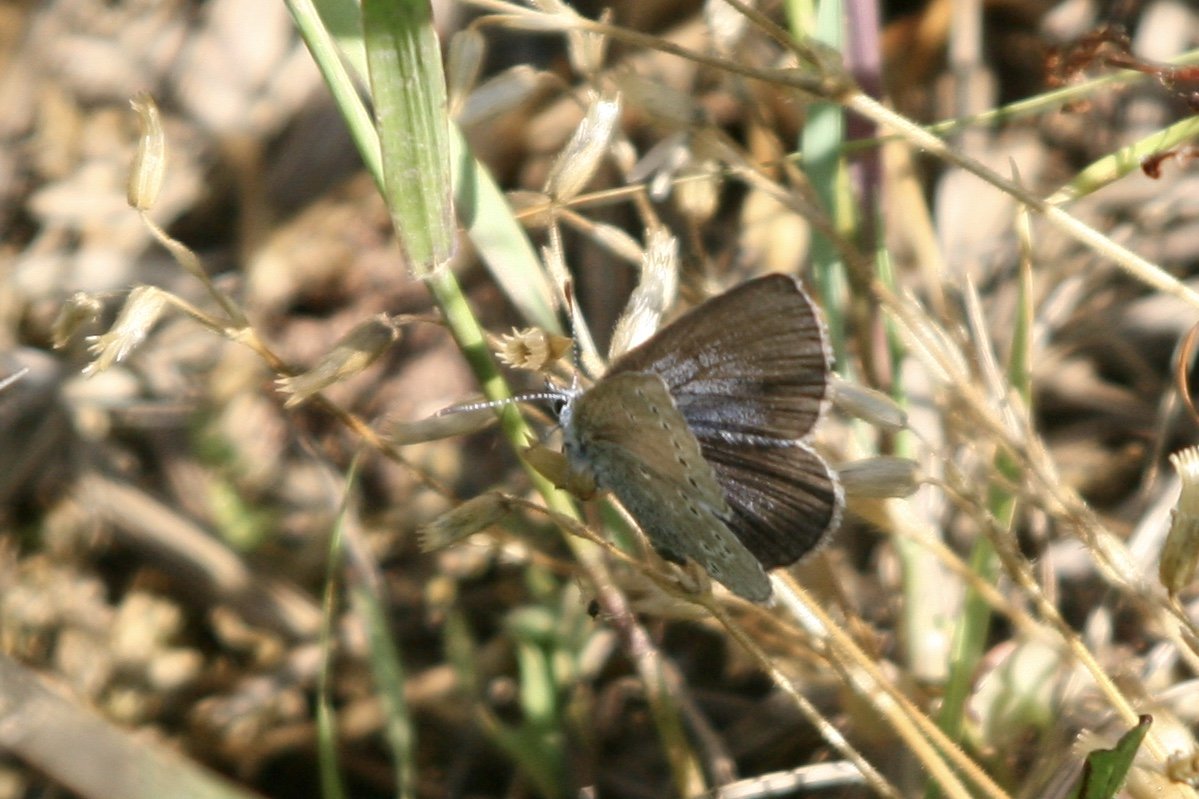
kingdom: Animalia
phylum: Arthropoda
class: Insecta
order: Lepidoptera
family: Lycaenidae
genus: Glaucopsyche
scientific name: Glaucopsyche lygdamus
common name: Silvery Blue
